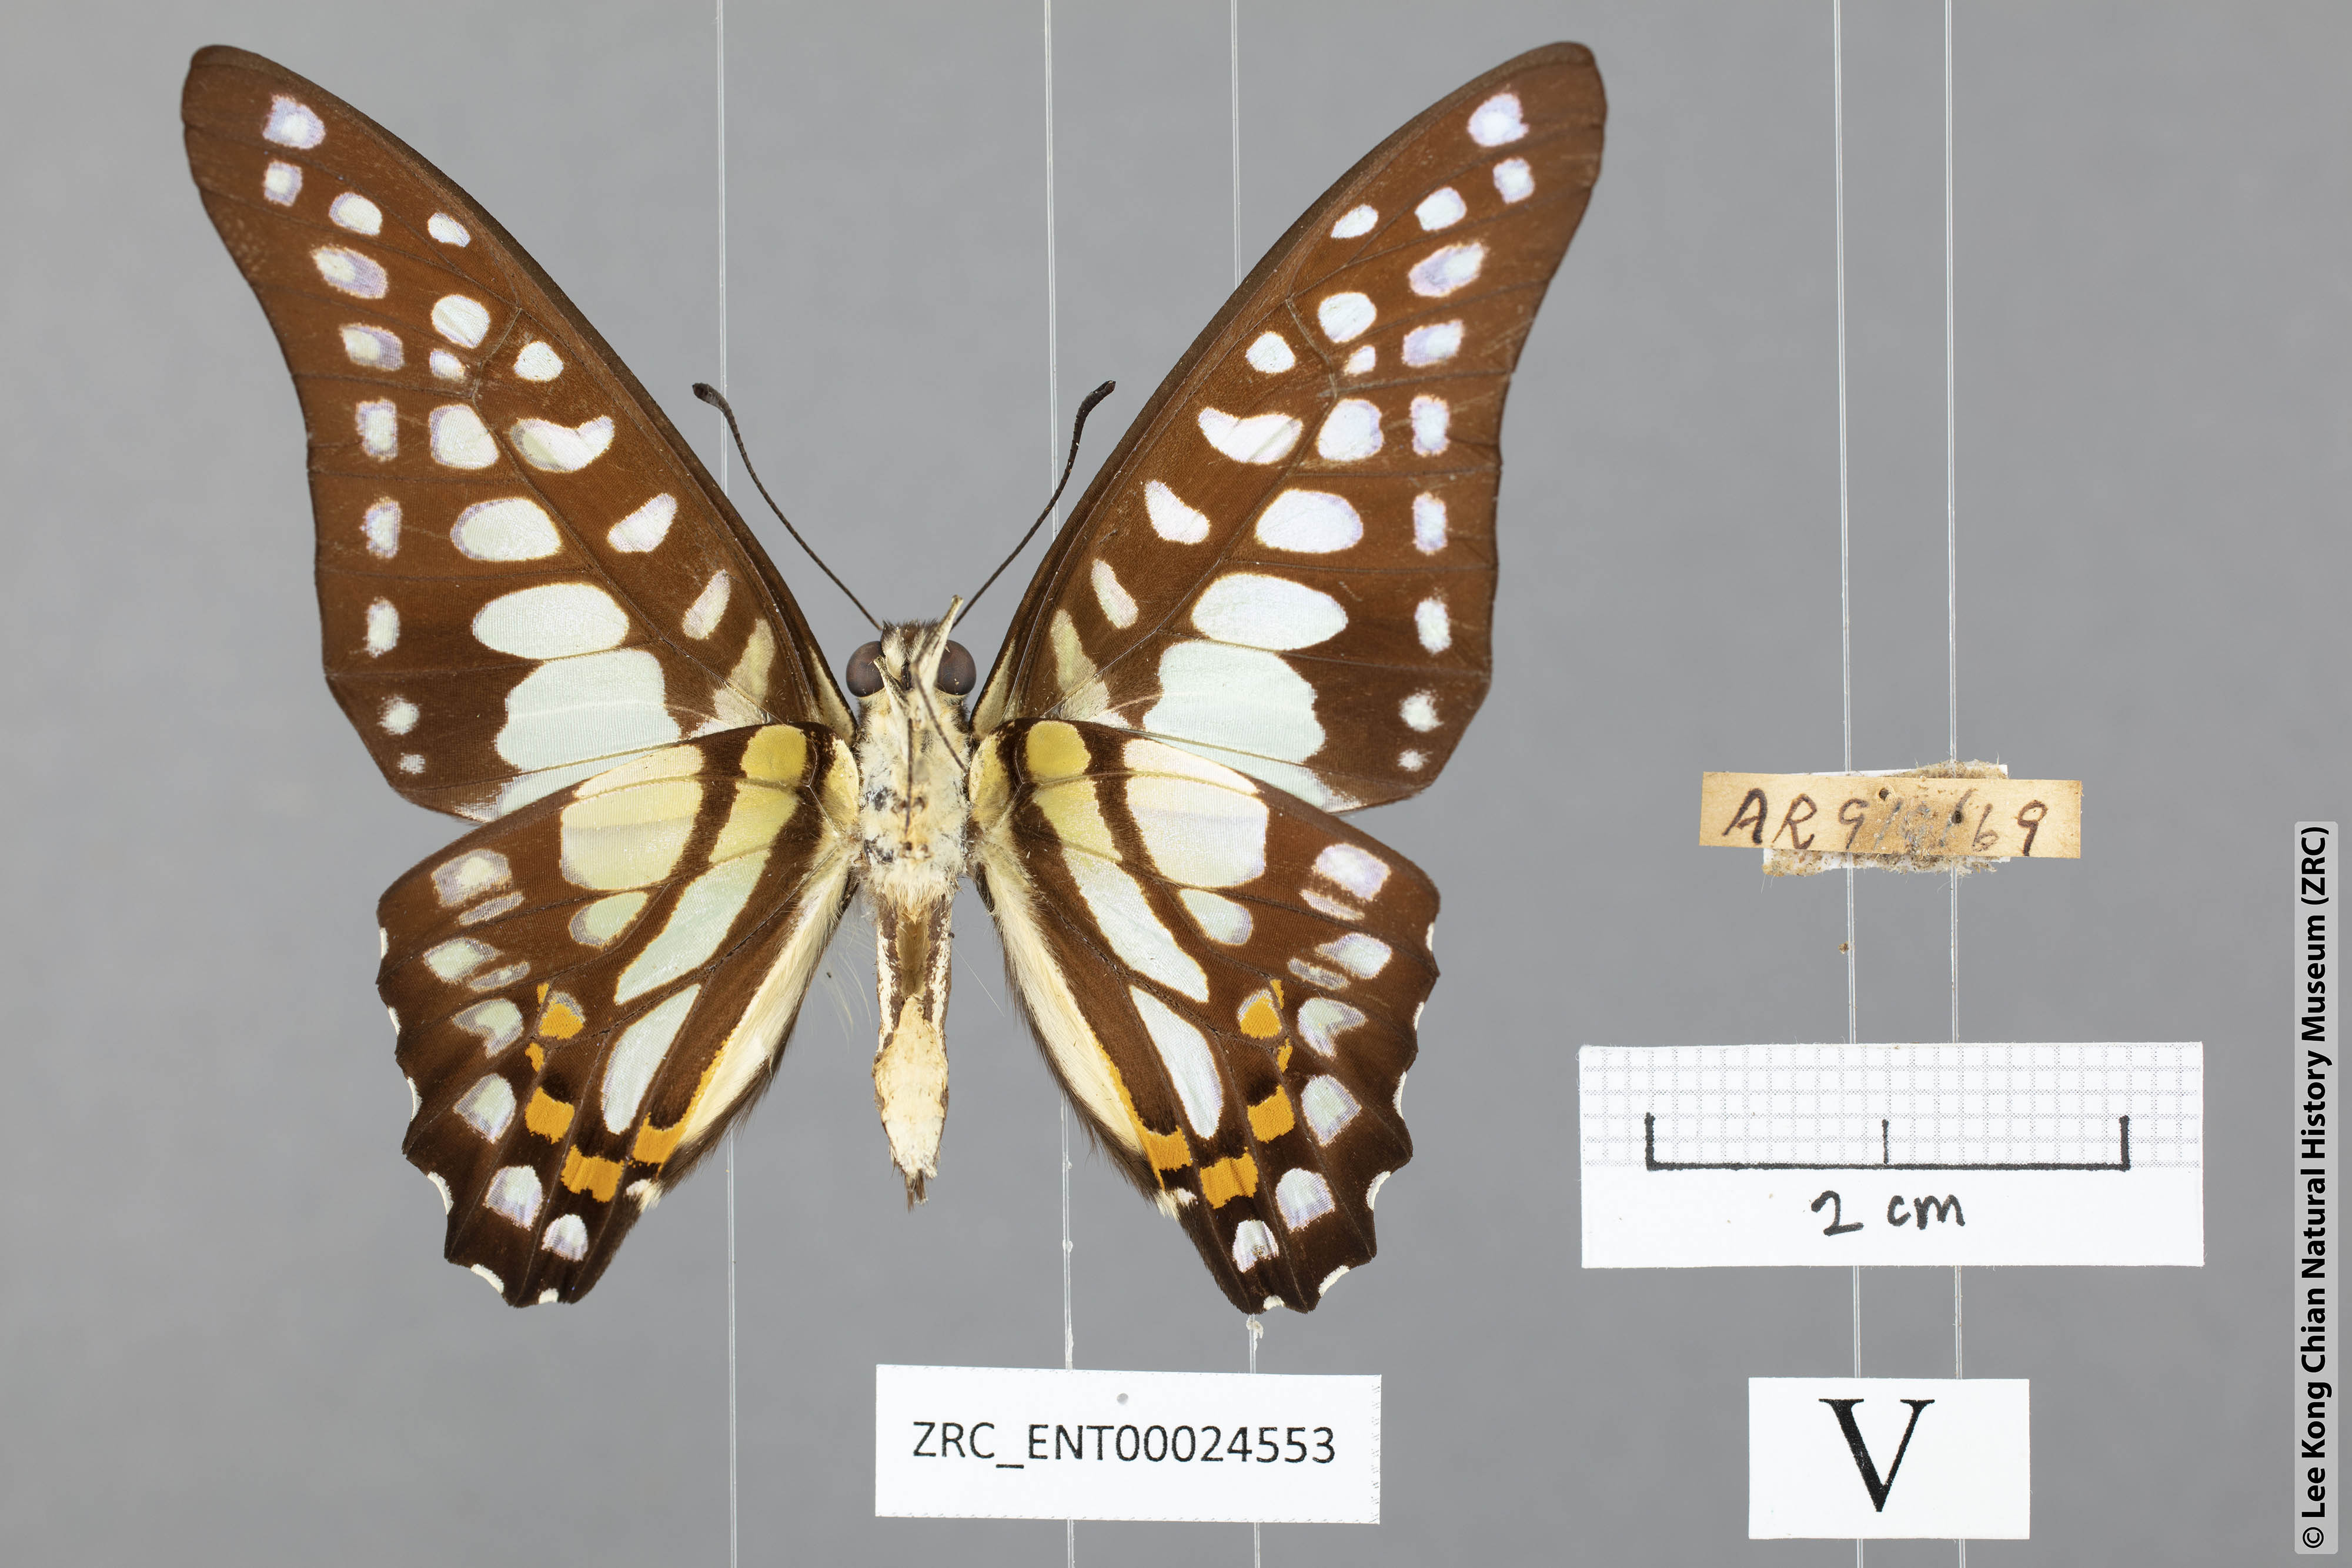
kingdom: Animalia
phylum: Arthropoda
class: Insecta
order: Lepidoptera
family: Papilionidae
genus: Graphium
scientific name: Graphium bathycles
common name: Veined jay
